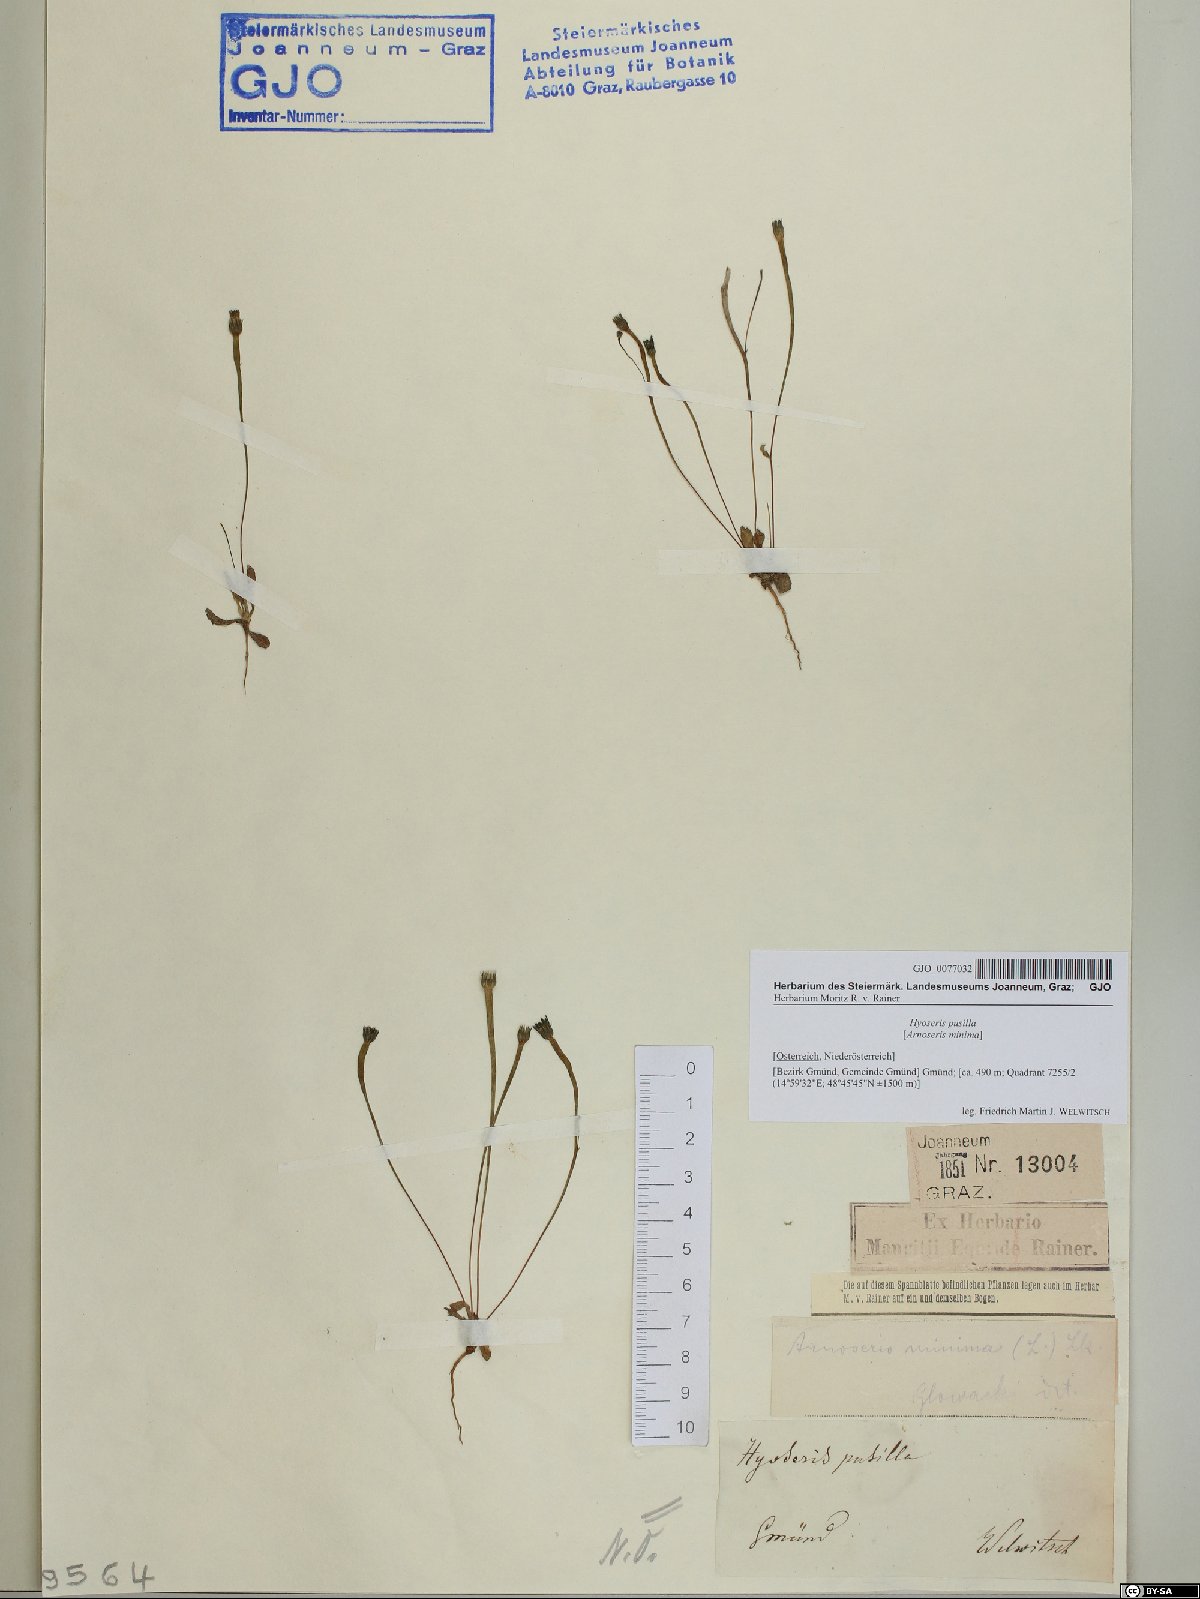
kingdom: Plantae
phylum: Tracheophyta
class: Magnoliopsida
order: Asterales
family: Asteraceae
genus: Hypochaeris
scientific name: Hypochaeris glabra
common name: Smooth catsear
